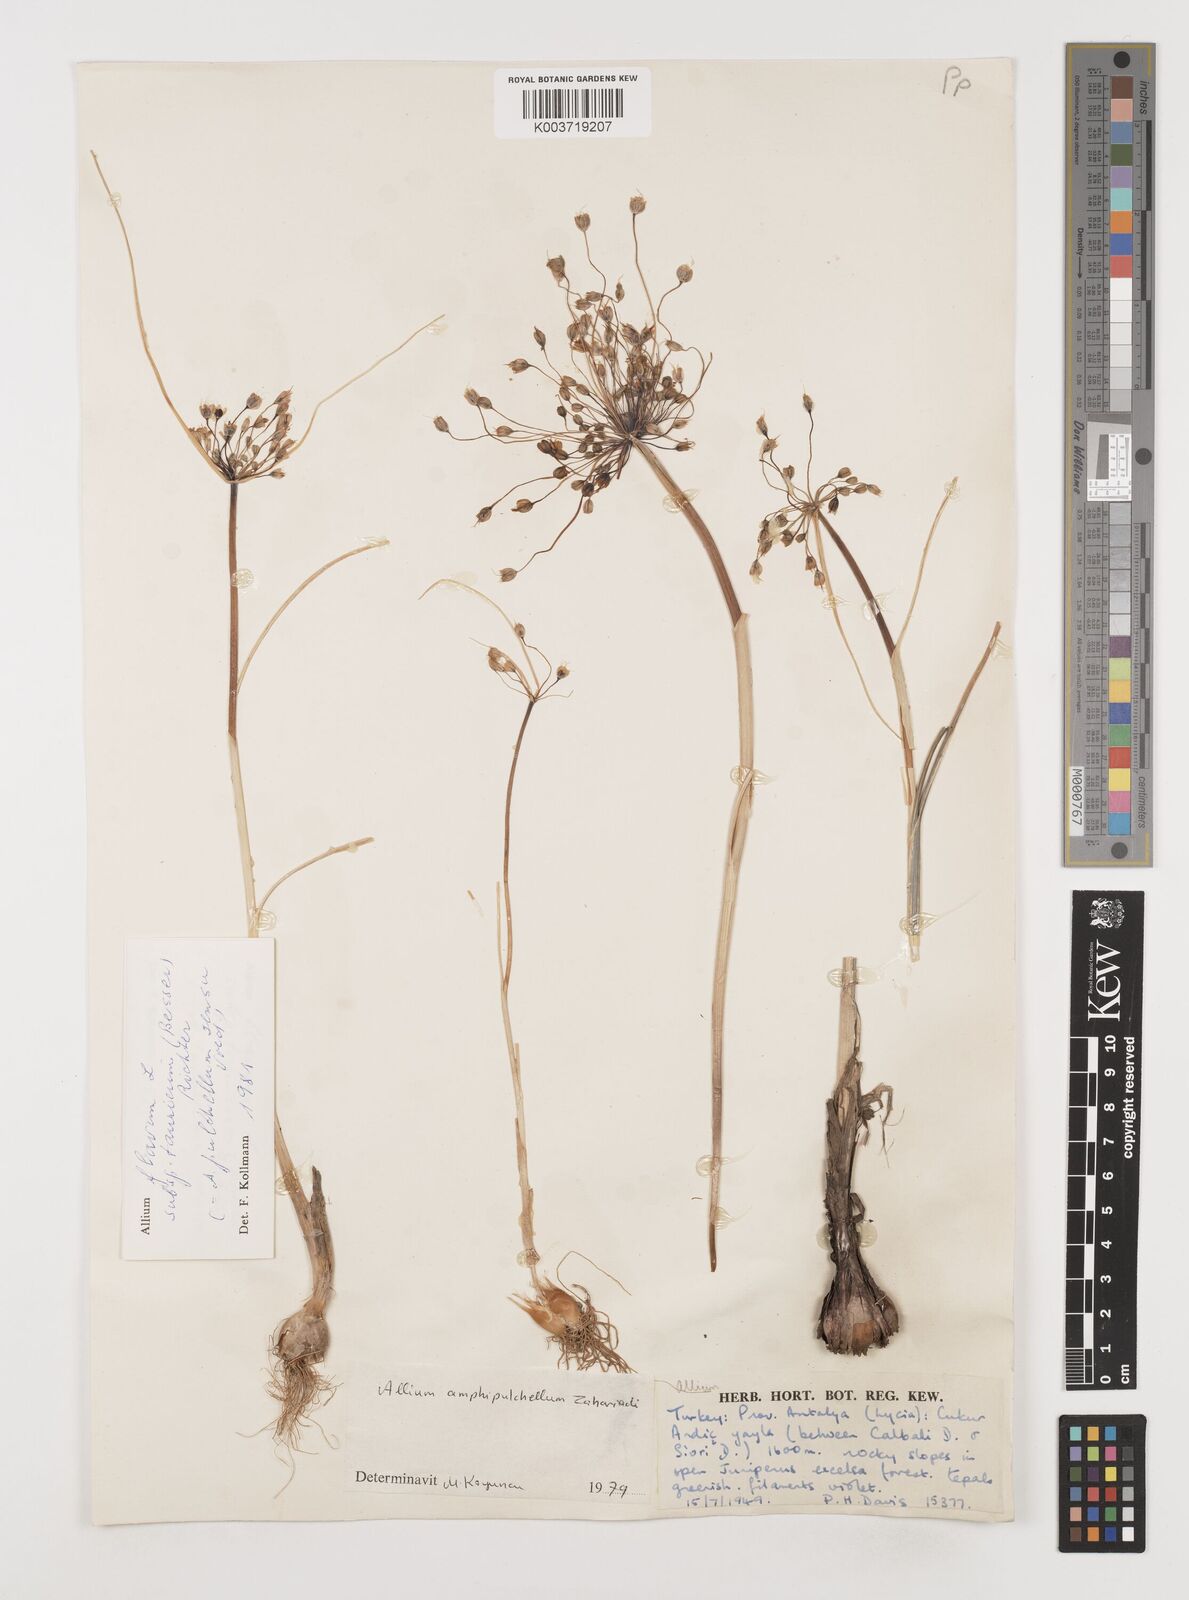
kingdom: Plantae
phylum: Tracheophyta
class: Liliopsida
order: Asparagales
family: Amaryllidaceae
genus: Allium
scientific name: Allium flavum
